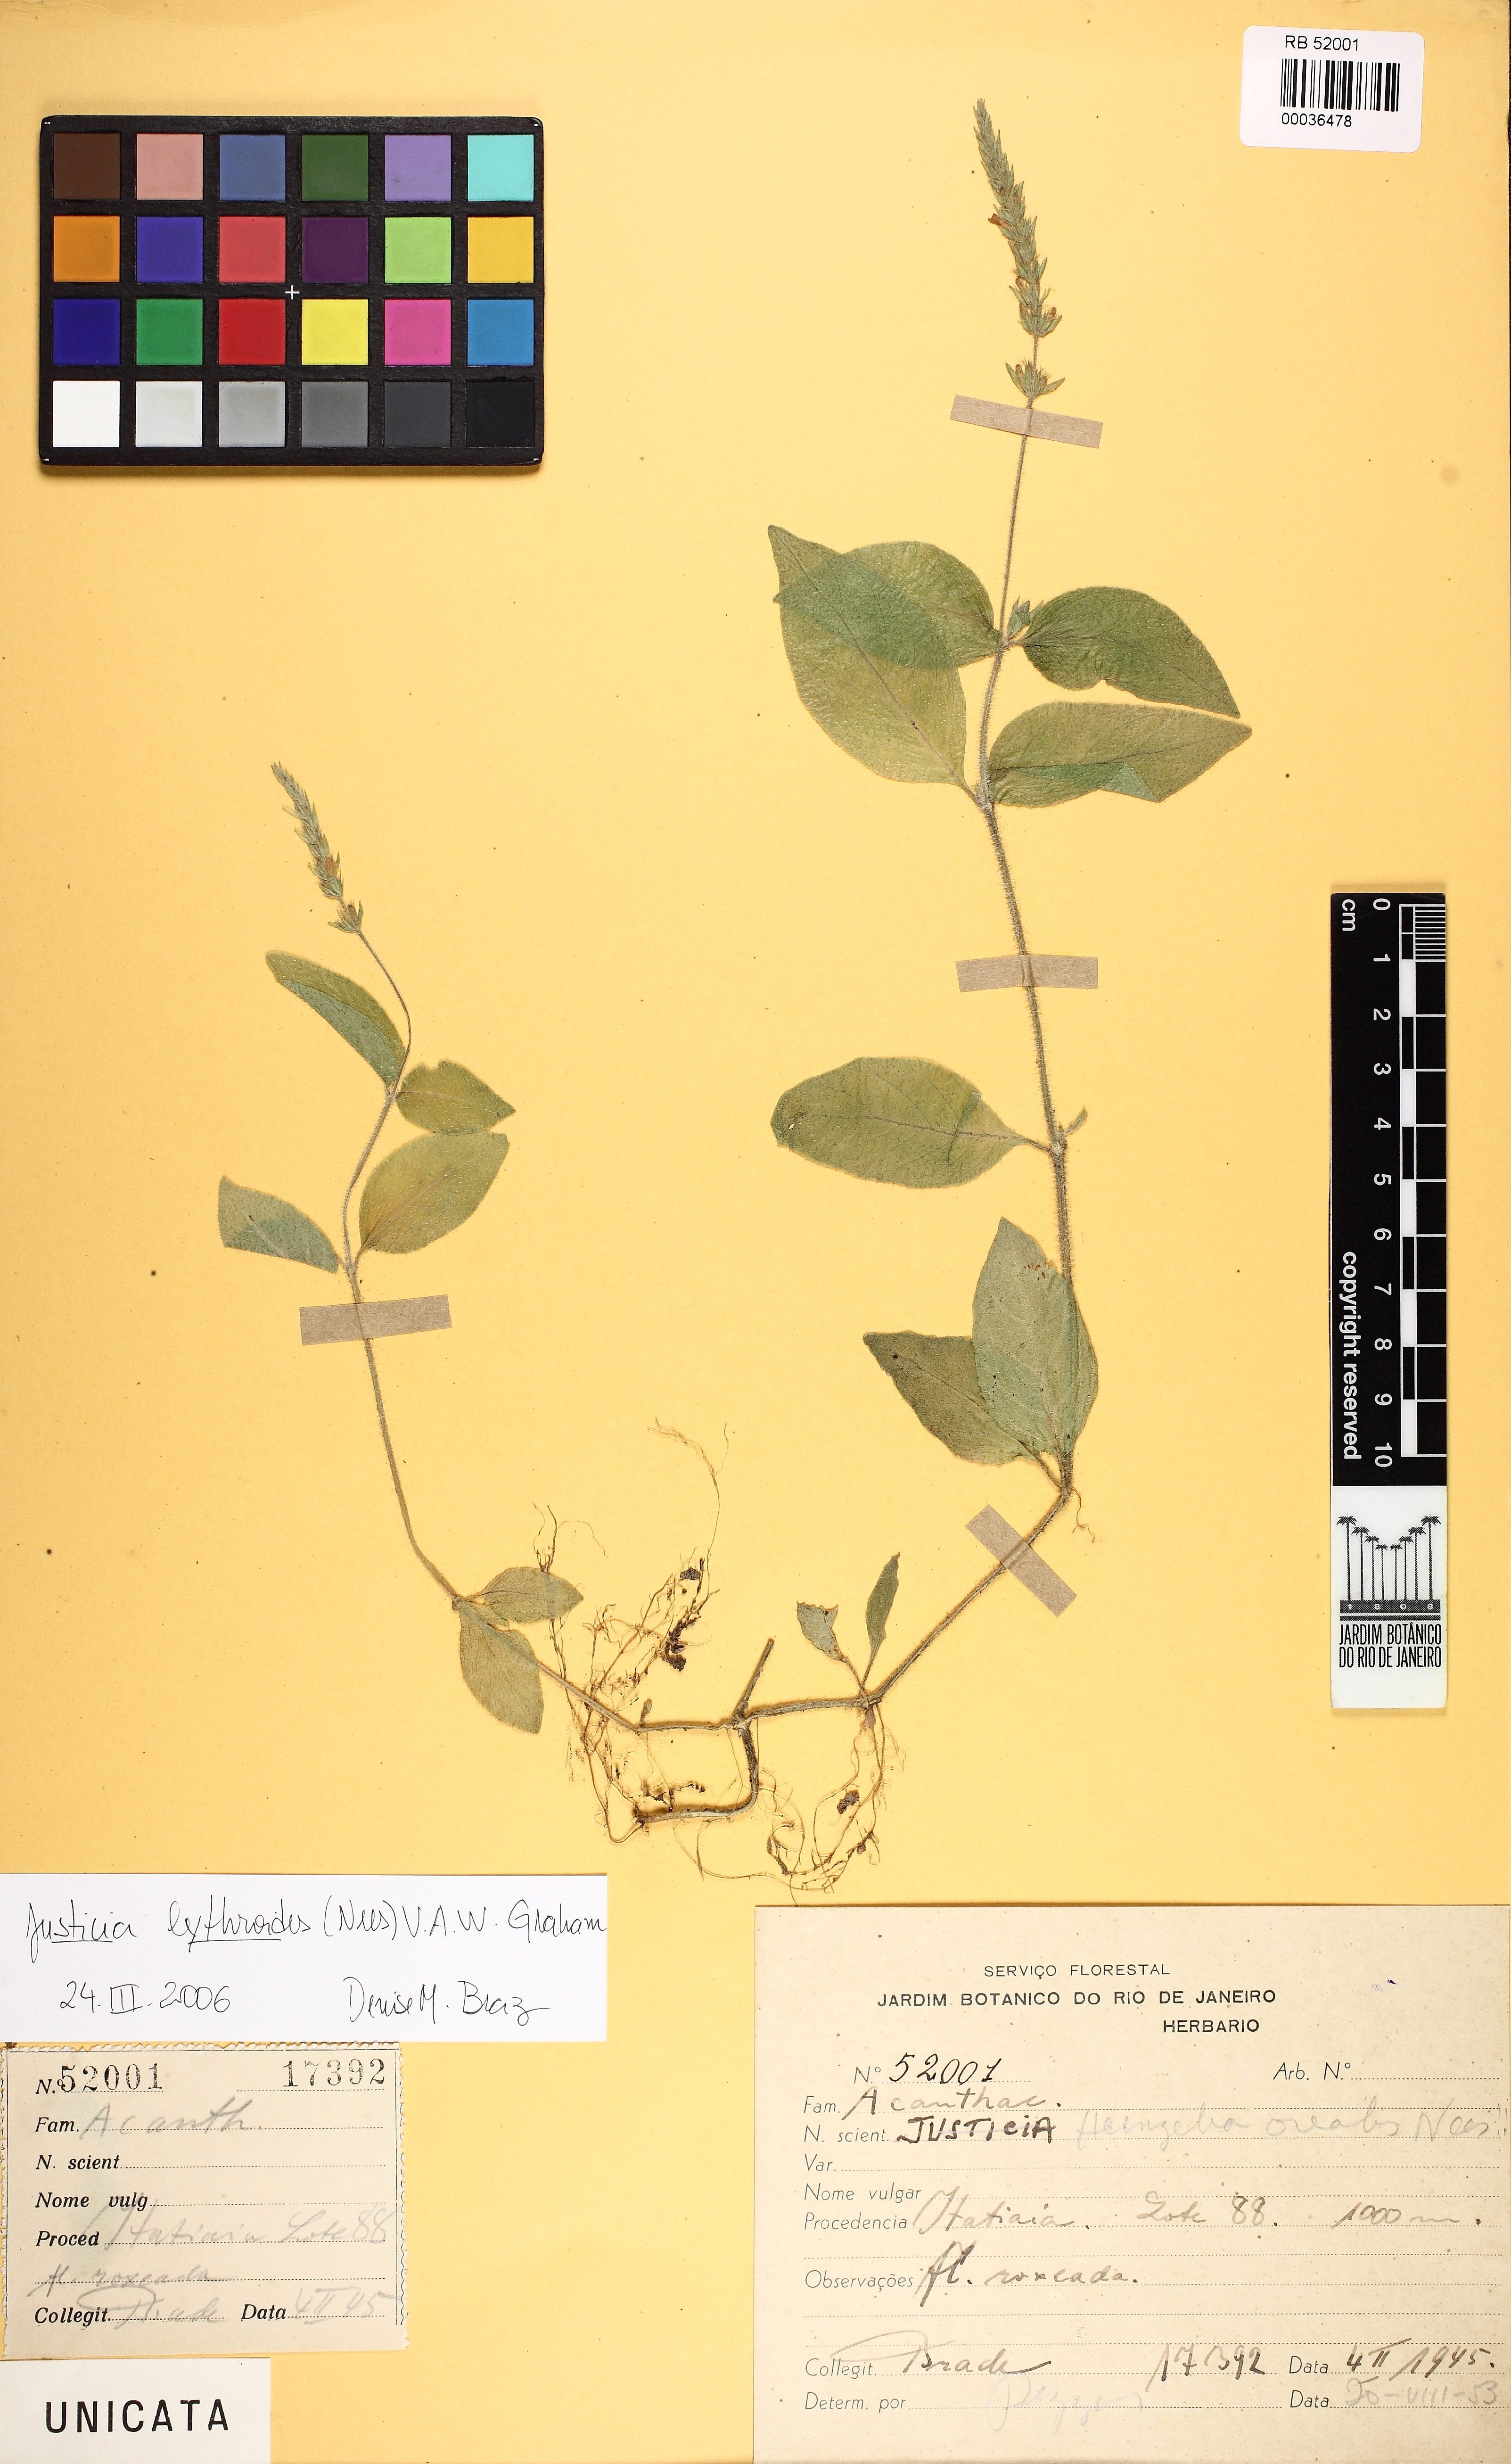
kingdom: Plantae
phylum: Tracheophyta
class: Magnoliopsida
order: Lamiales
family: Acanthaceae
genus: Justicia
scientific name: Justicia lythroides
